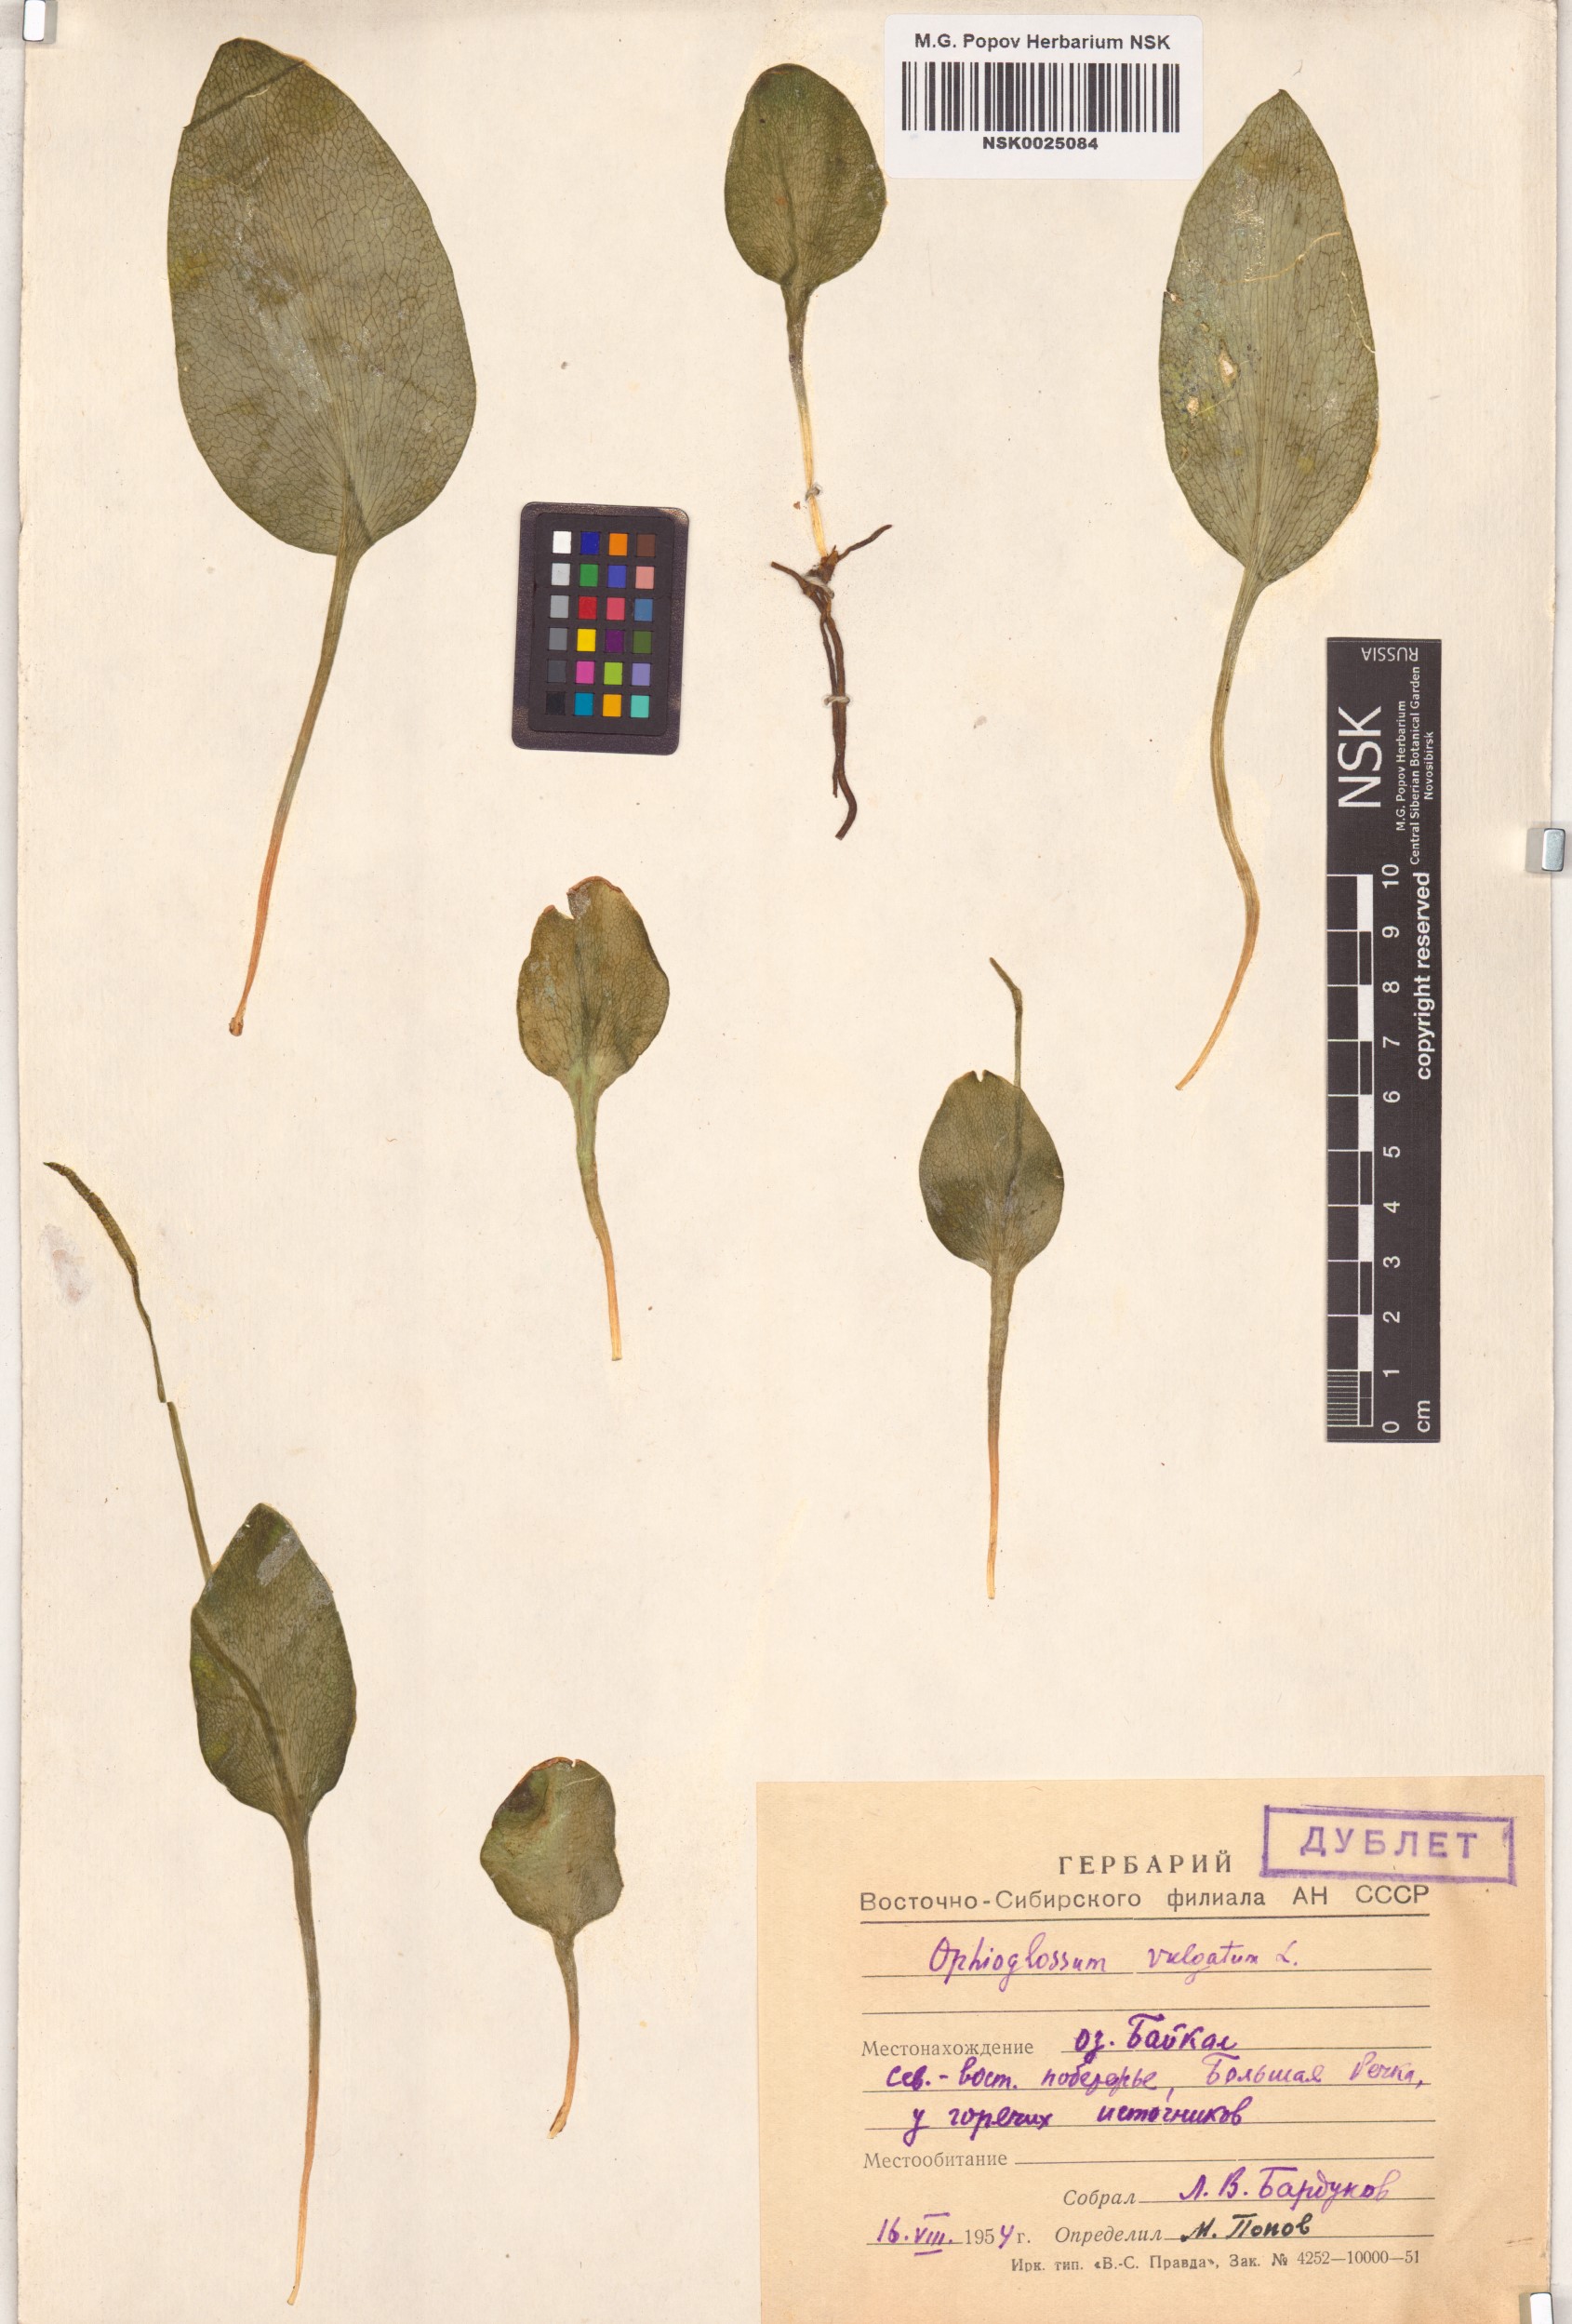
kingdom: Plantae
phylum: Tracheophyta
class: Polypodiopsida
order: Ophioglossales
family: Ophioglossaceae
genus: Ophioglossum
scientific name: Ophioglossum vulgatum
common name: Adder's-tongue
